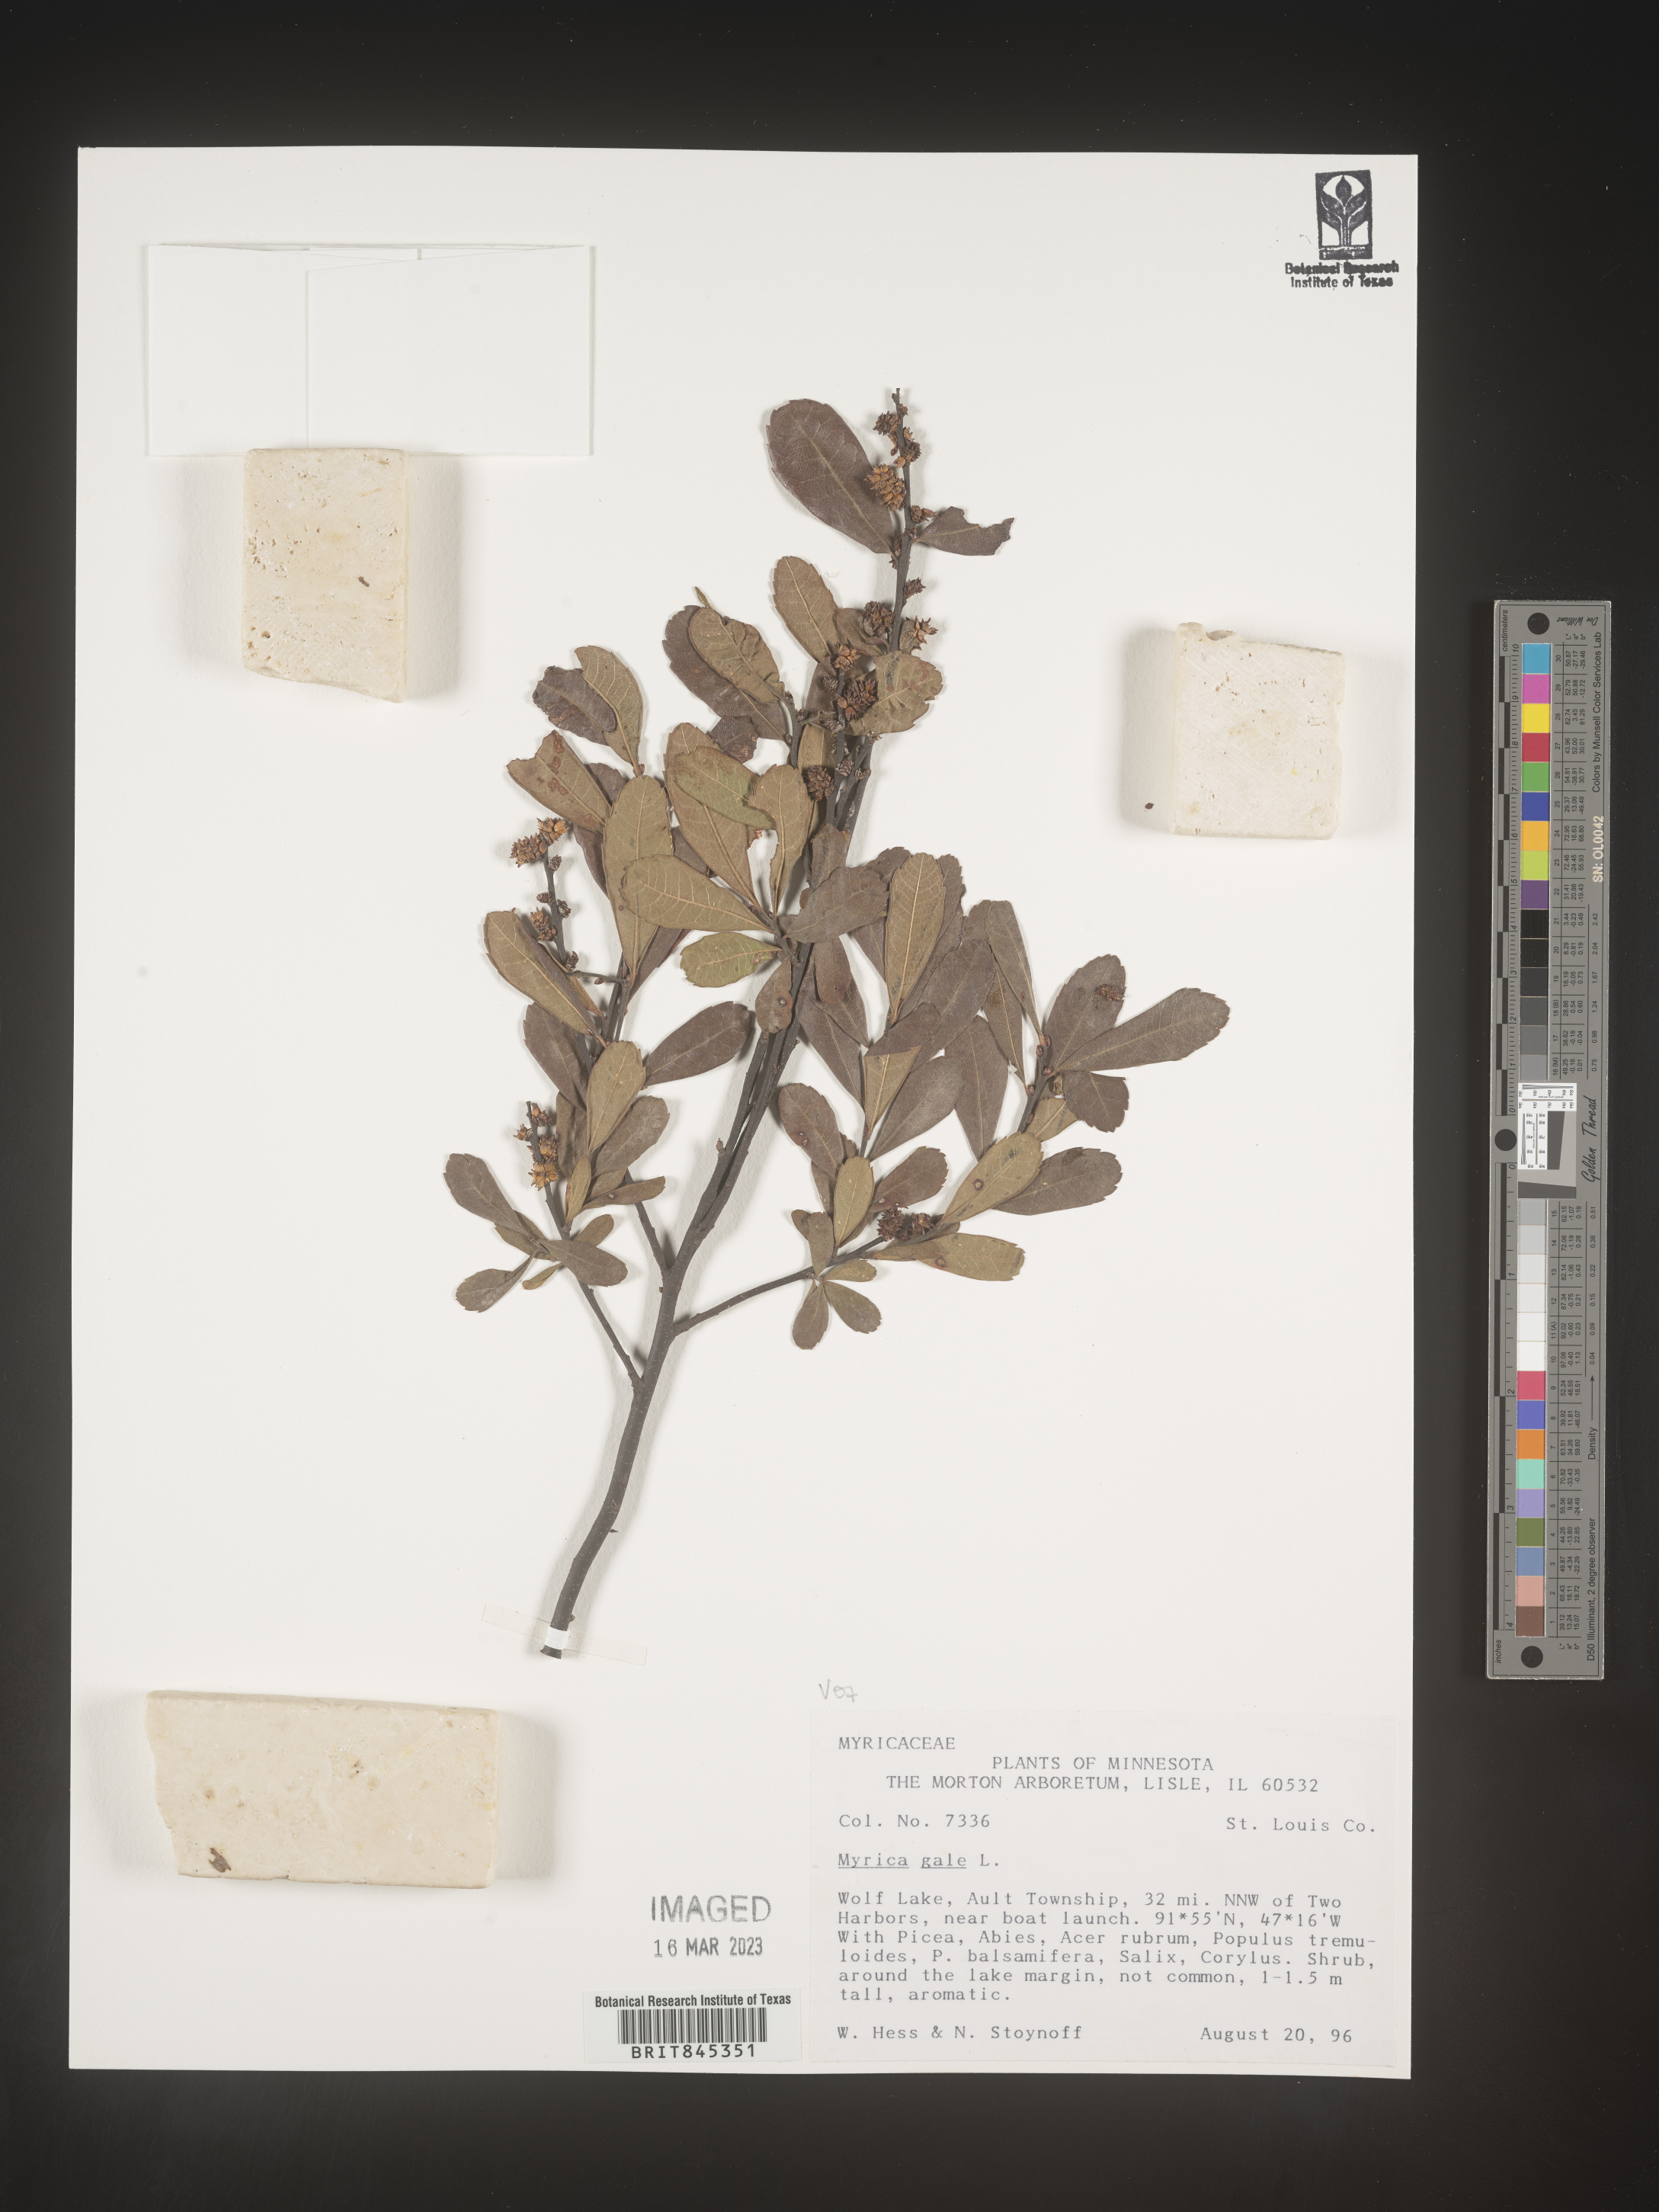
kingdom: Plantae
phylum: Tracheophyta
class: Magnoliopsida
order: Fagales
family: Myricaceae
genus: Myrica
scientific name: Myrica gale
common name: Sweet gale
